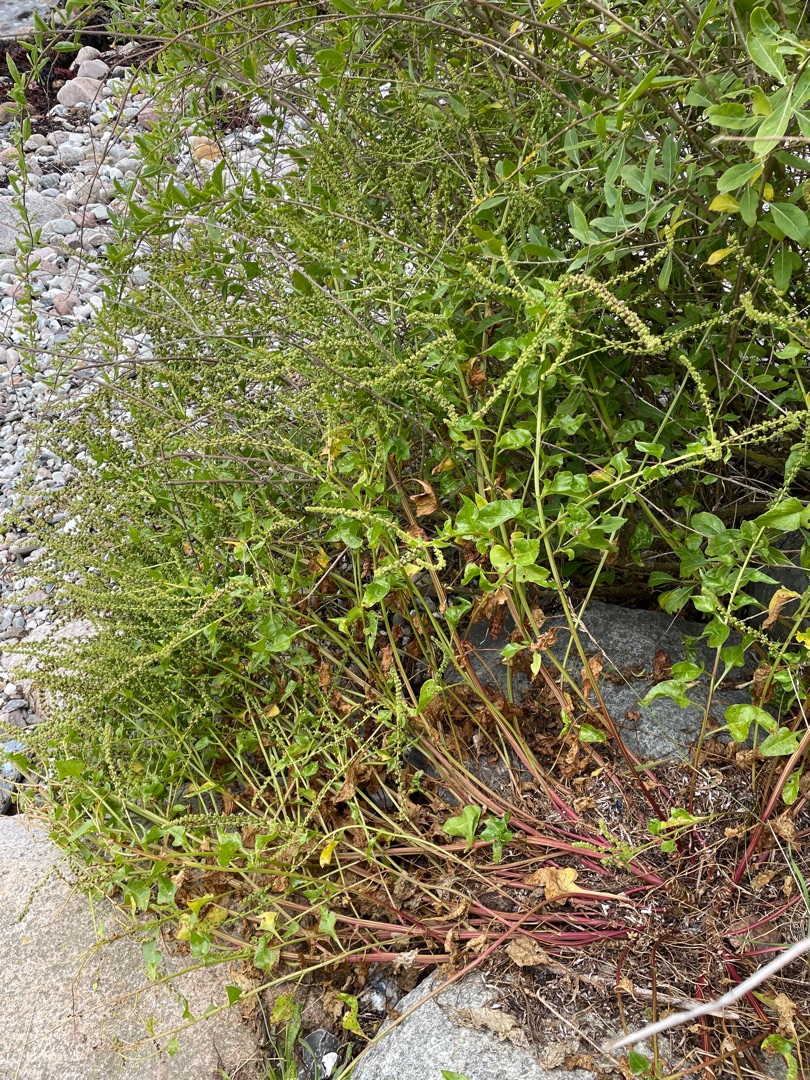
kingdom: Plantae
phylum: Tracheophyta
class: Magnoliopsida
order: Caryophyllales
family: Amaranthaceae
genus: Beta
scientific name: Beta maritima
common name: Strand-bede
